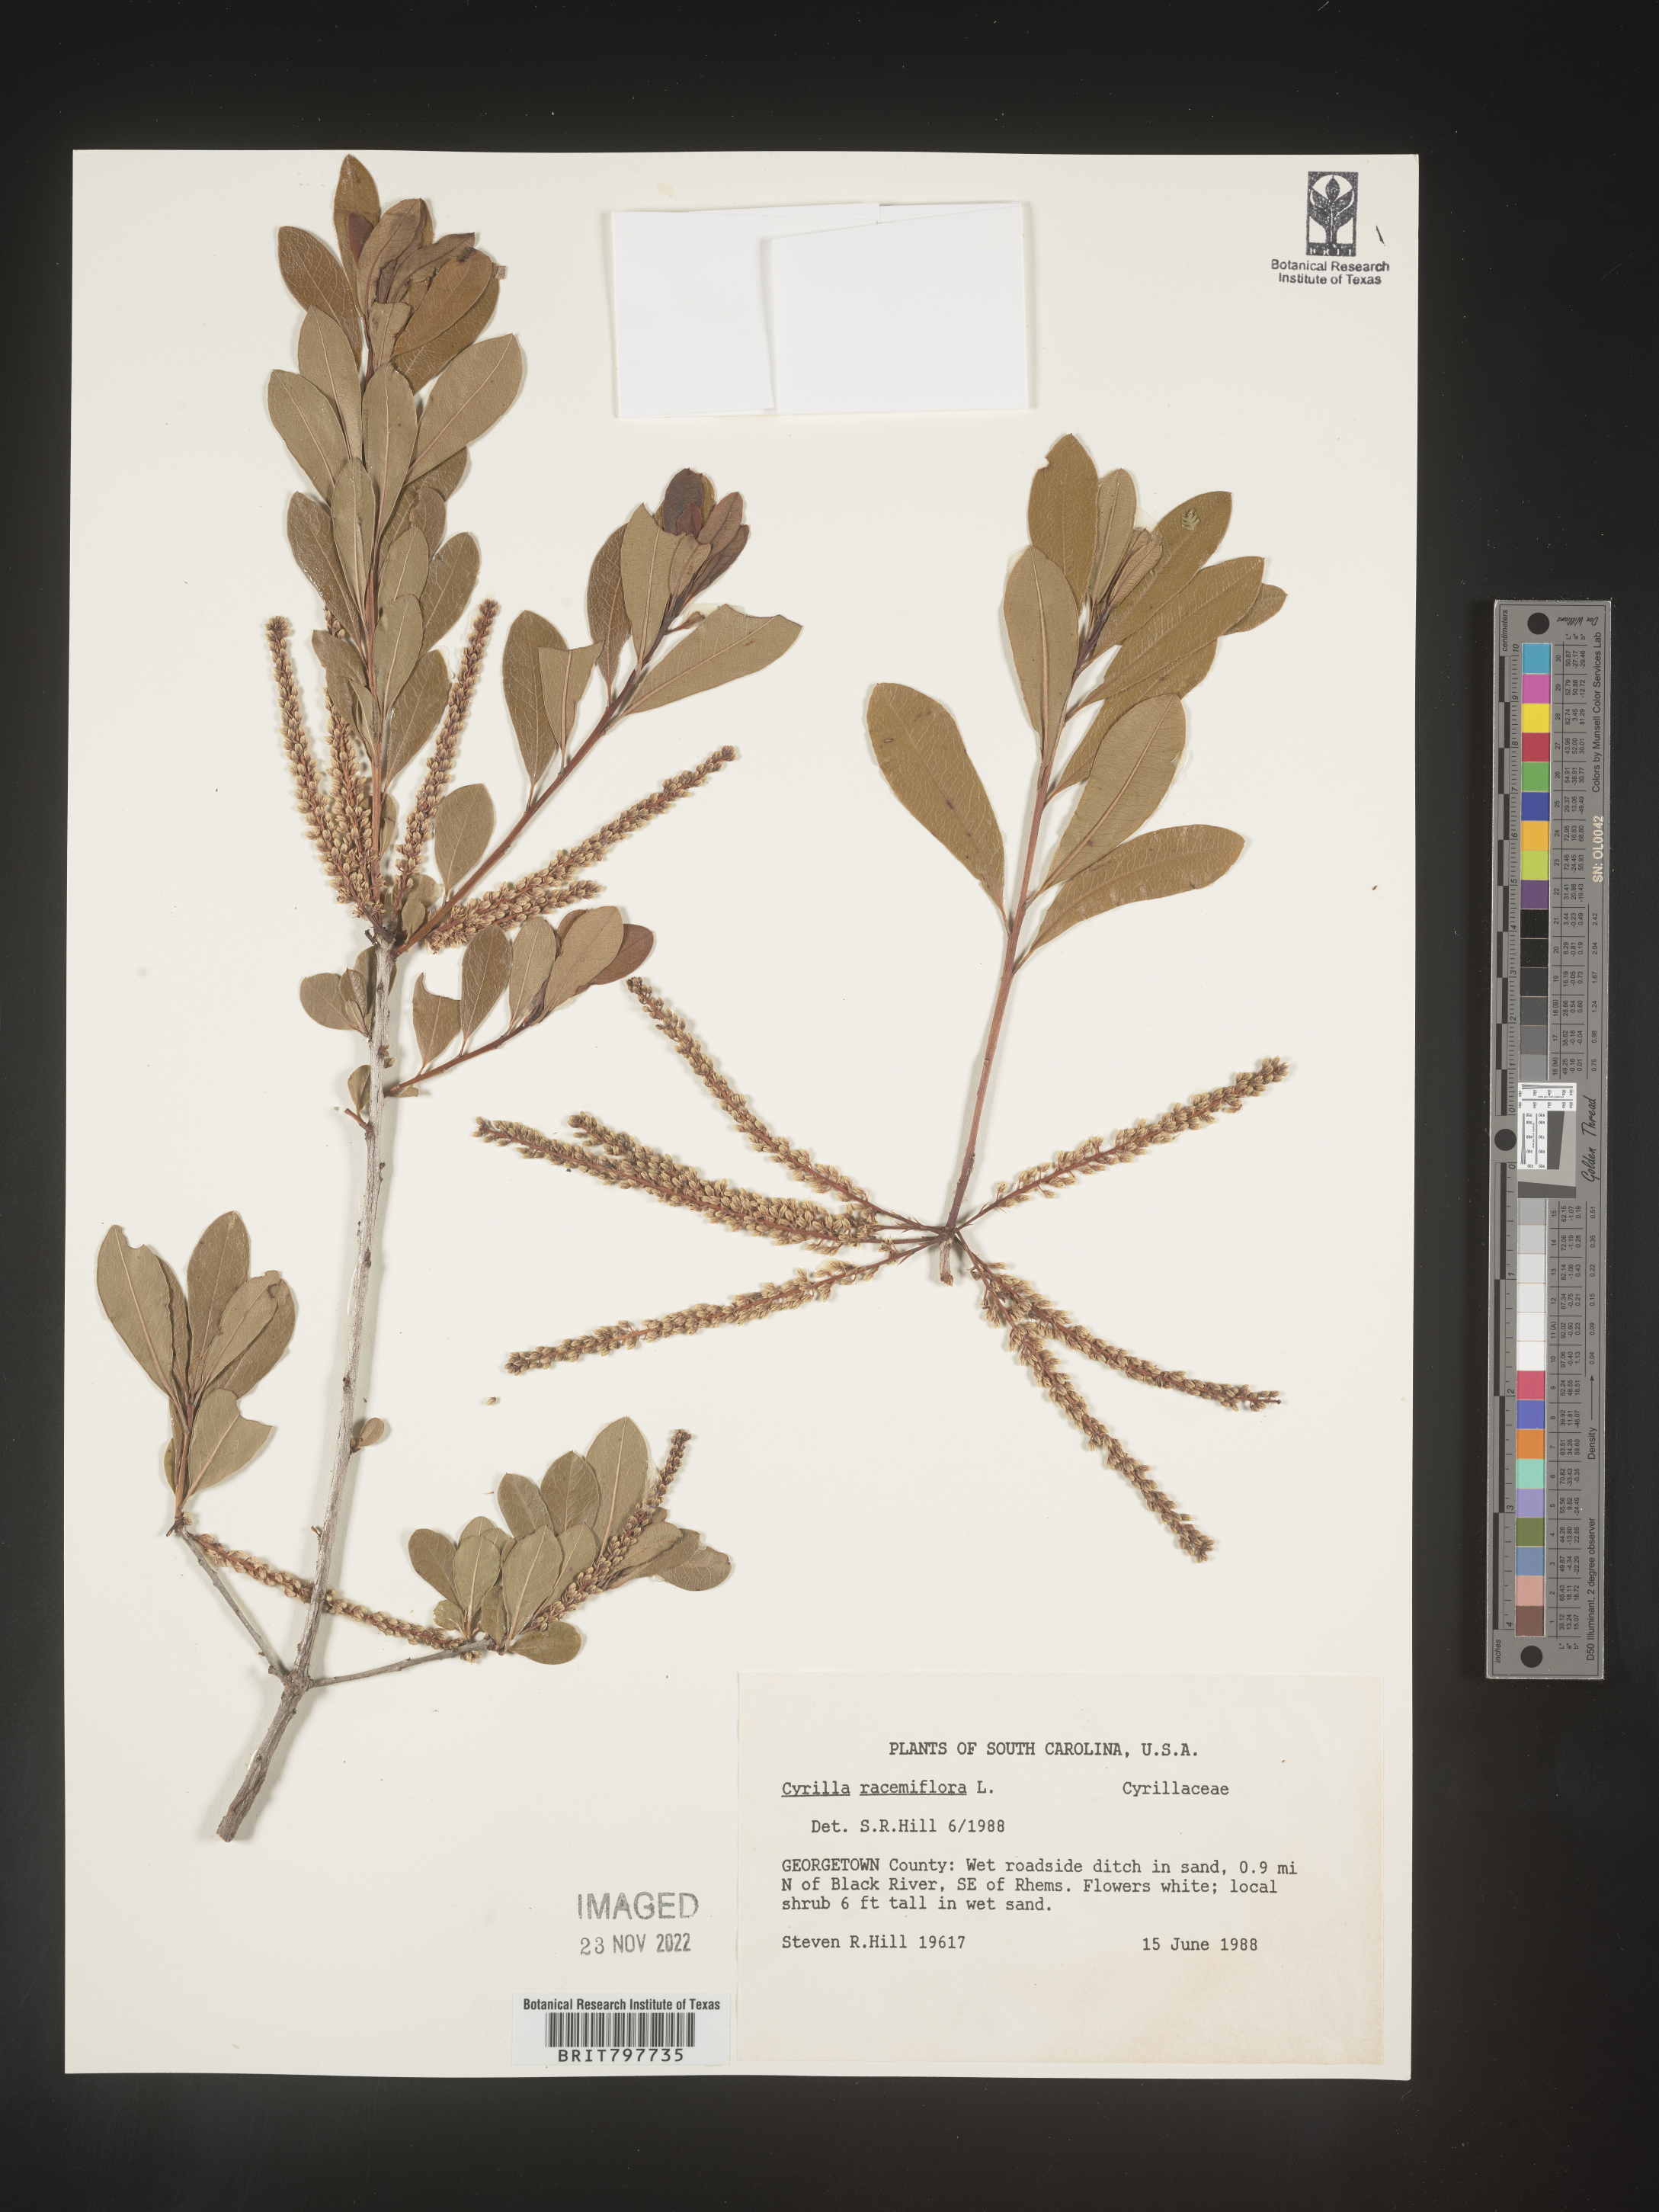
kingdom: Plantae
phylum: Tracheophyta
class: Magnoliopsida
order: Ericales
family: Cyrillaceae
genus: Cyrilla
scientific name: Cyrilla racemiflora
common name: Black titi
